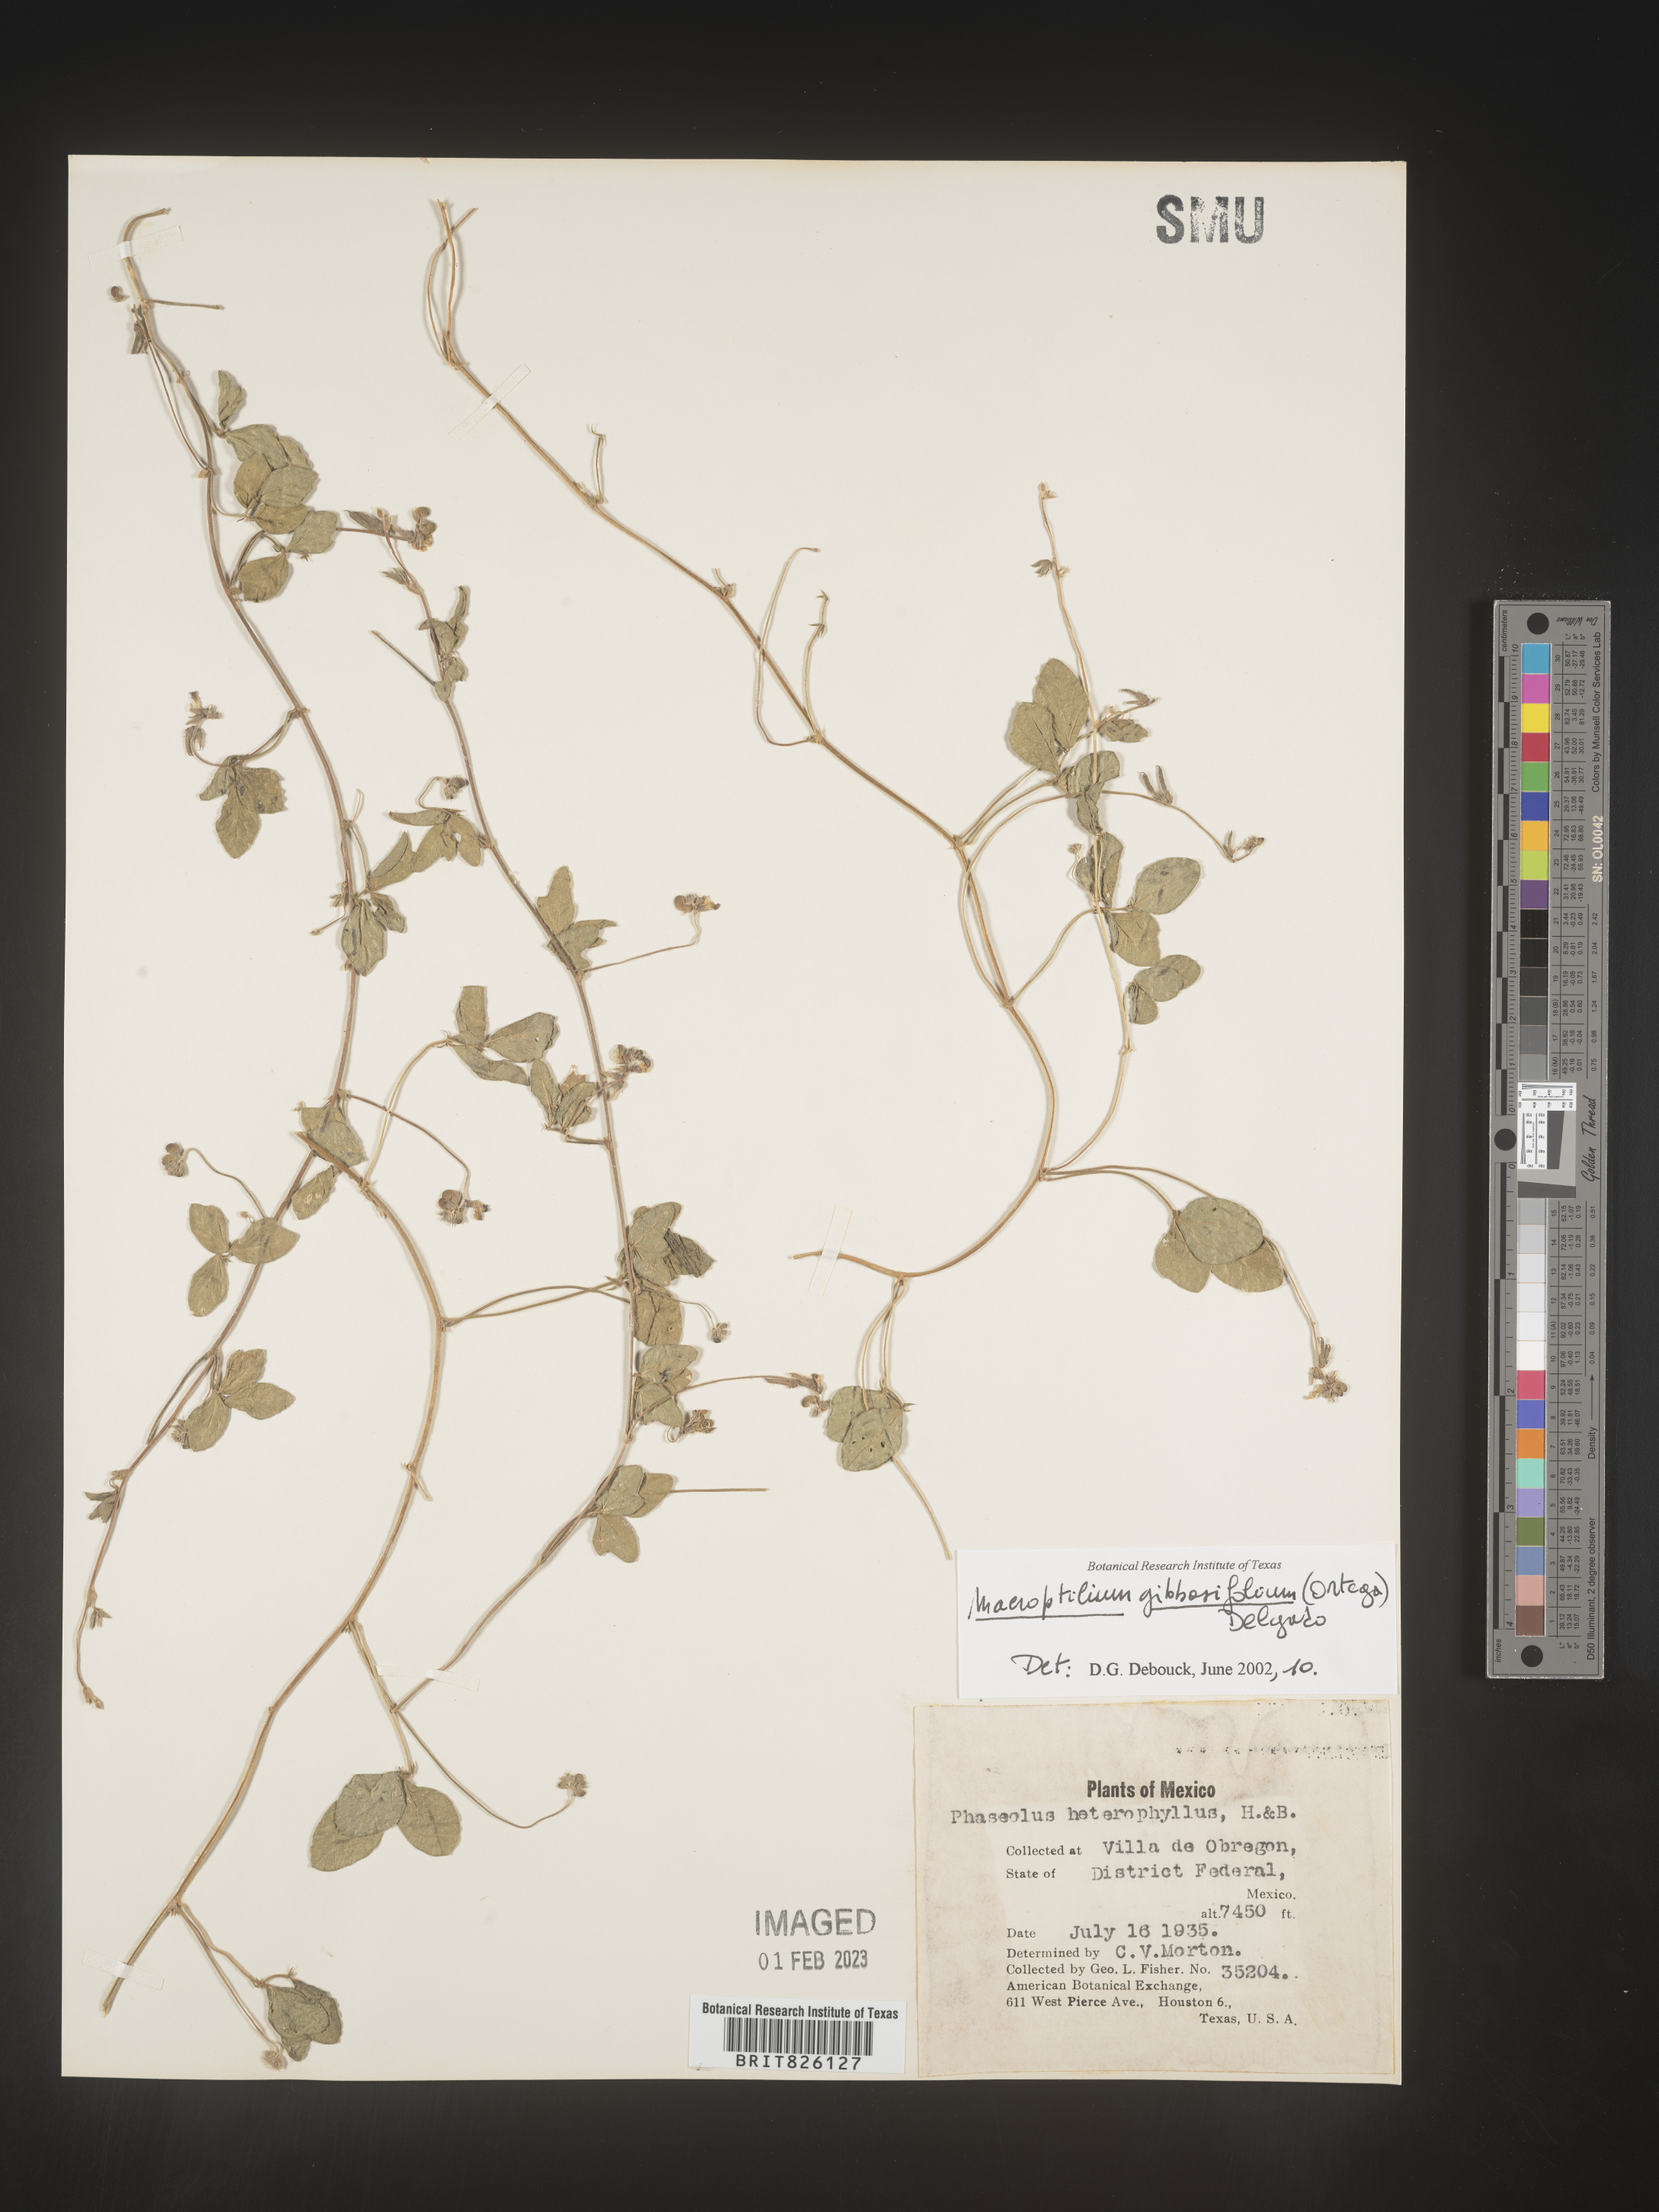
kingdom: Plantae
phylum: Tracheophyta
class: Magnoliopsida
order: Fabales
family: Fabaceae
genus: Macroptilium
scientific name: Macroptilium
